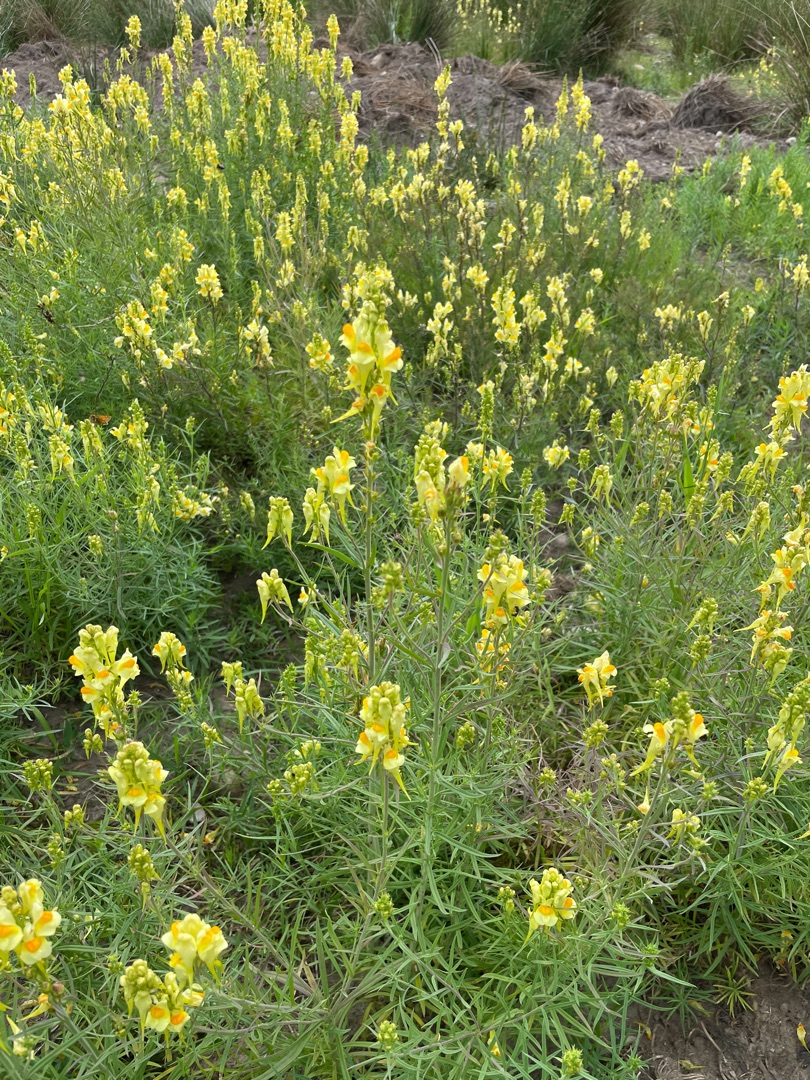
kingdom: Plantae
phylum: Tracheophyta
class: Magnoliopsida
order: Lamiales
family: Plantaginaceae
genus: Linaria
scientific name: Linaria vulgaris
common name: Almindelig torskemund
